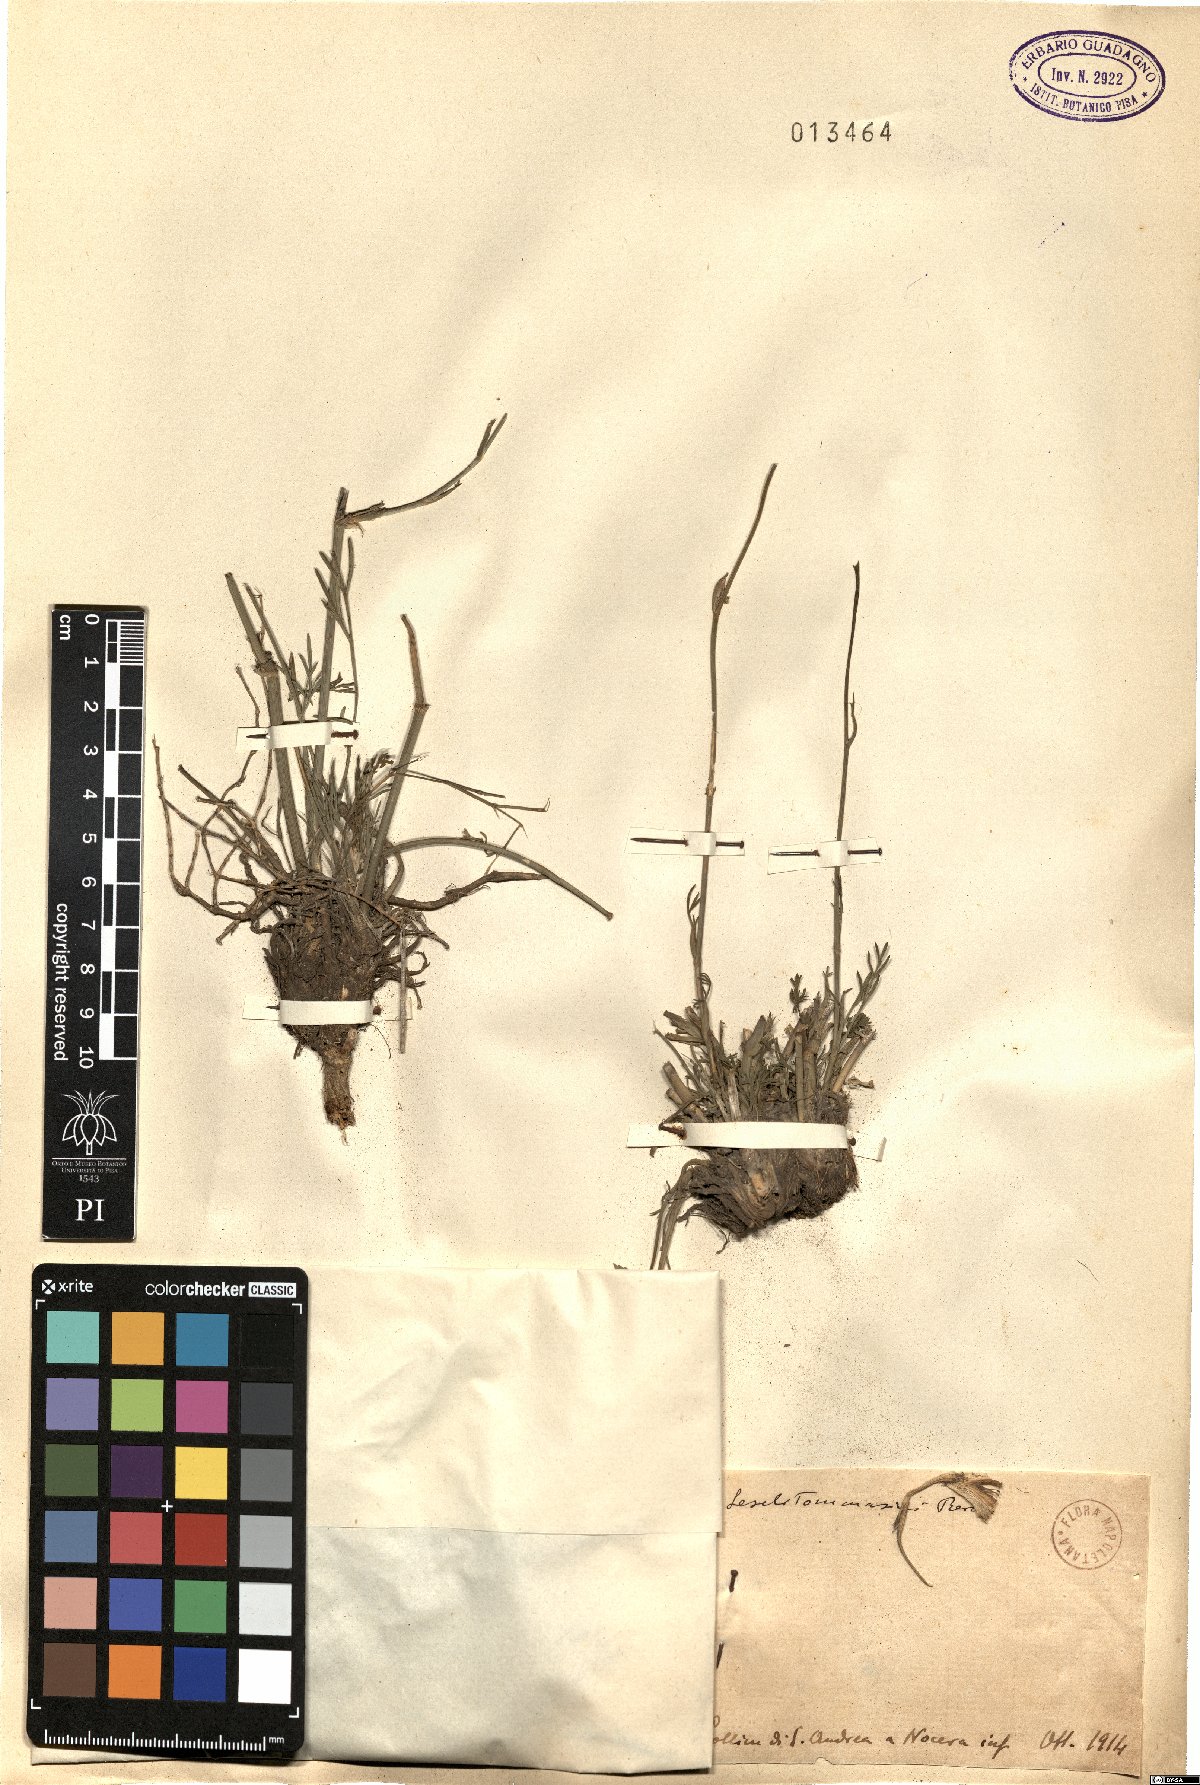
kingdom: Plantae
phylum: Tracheophyta
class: Magnoliopsida
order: Apiales
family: Apiaceae
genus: Seseli
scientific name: Seseli montanum
